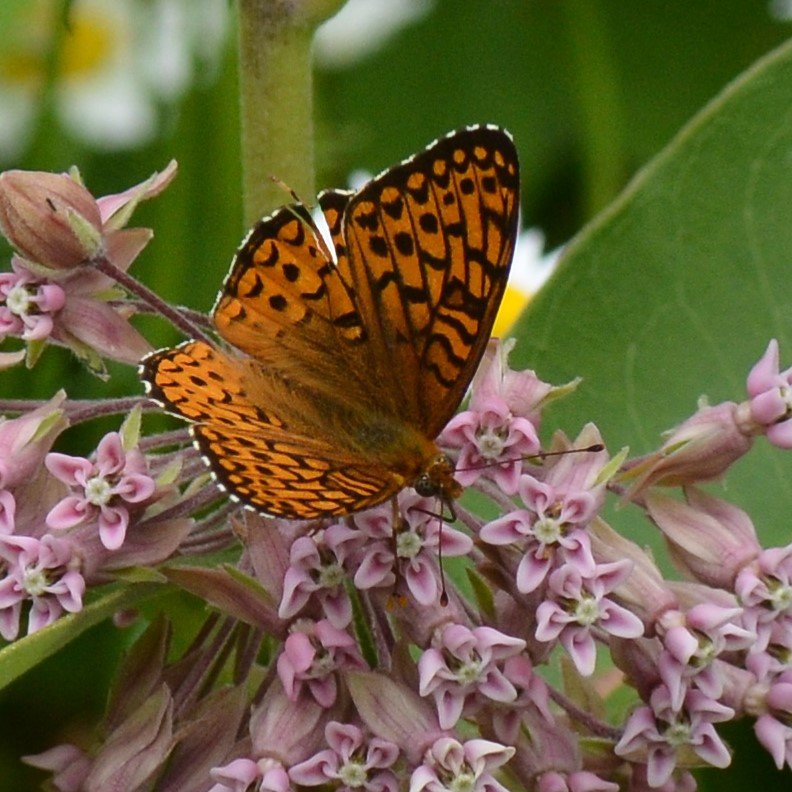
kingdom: Animalia
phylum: Arthropoda
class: Insecta
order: Lepidoptera
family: Nymphalidae
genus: Speyeria
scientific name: Speyeria atlantis
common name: Atlantis Fritillary
